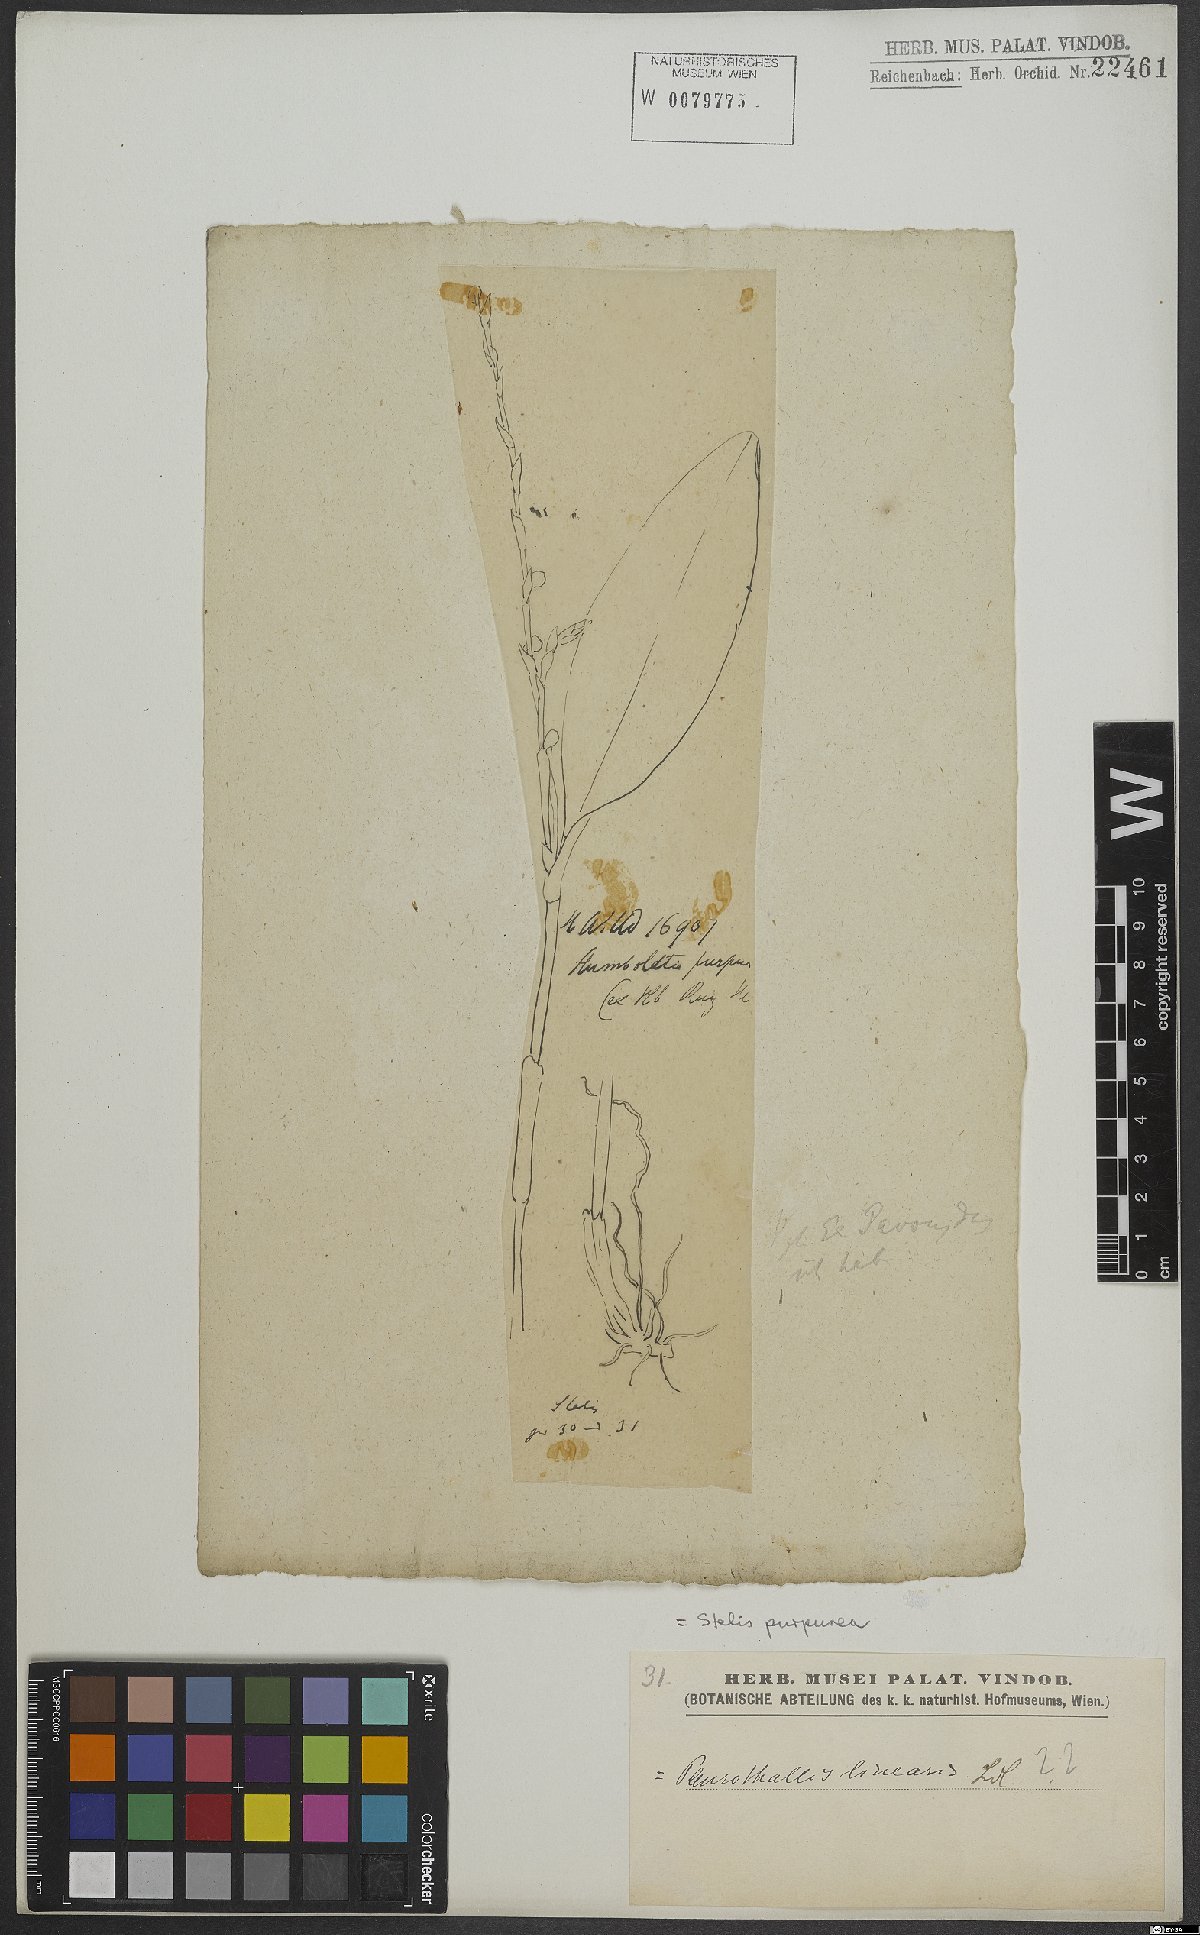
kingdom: Plantae
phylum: Tracheophyta
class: Liliopsida
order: Asparagales
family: Orchidaceae
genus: Andinia
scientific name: Andinia spiralis
